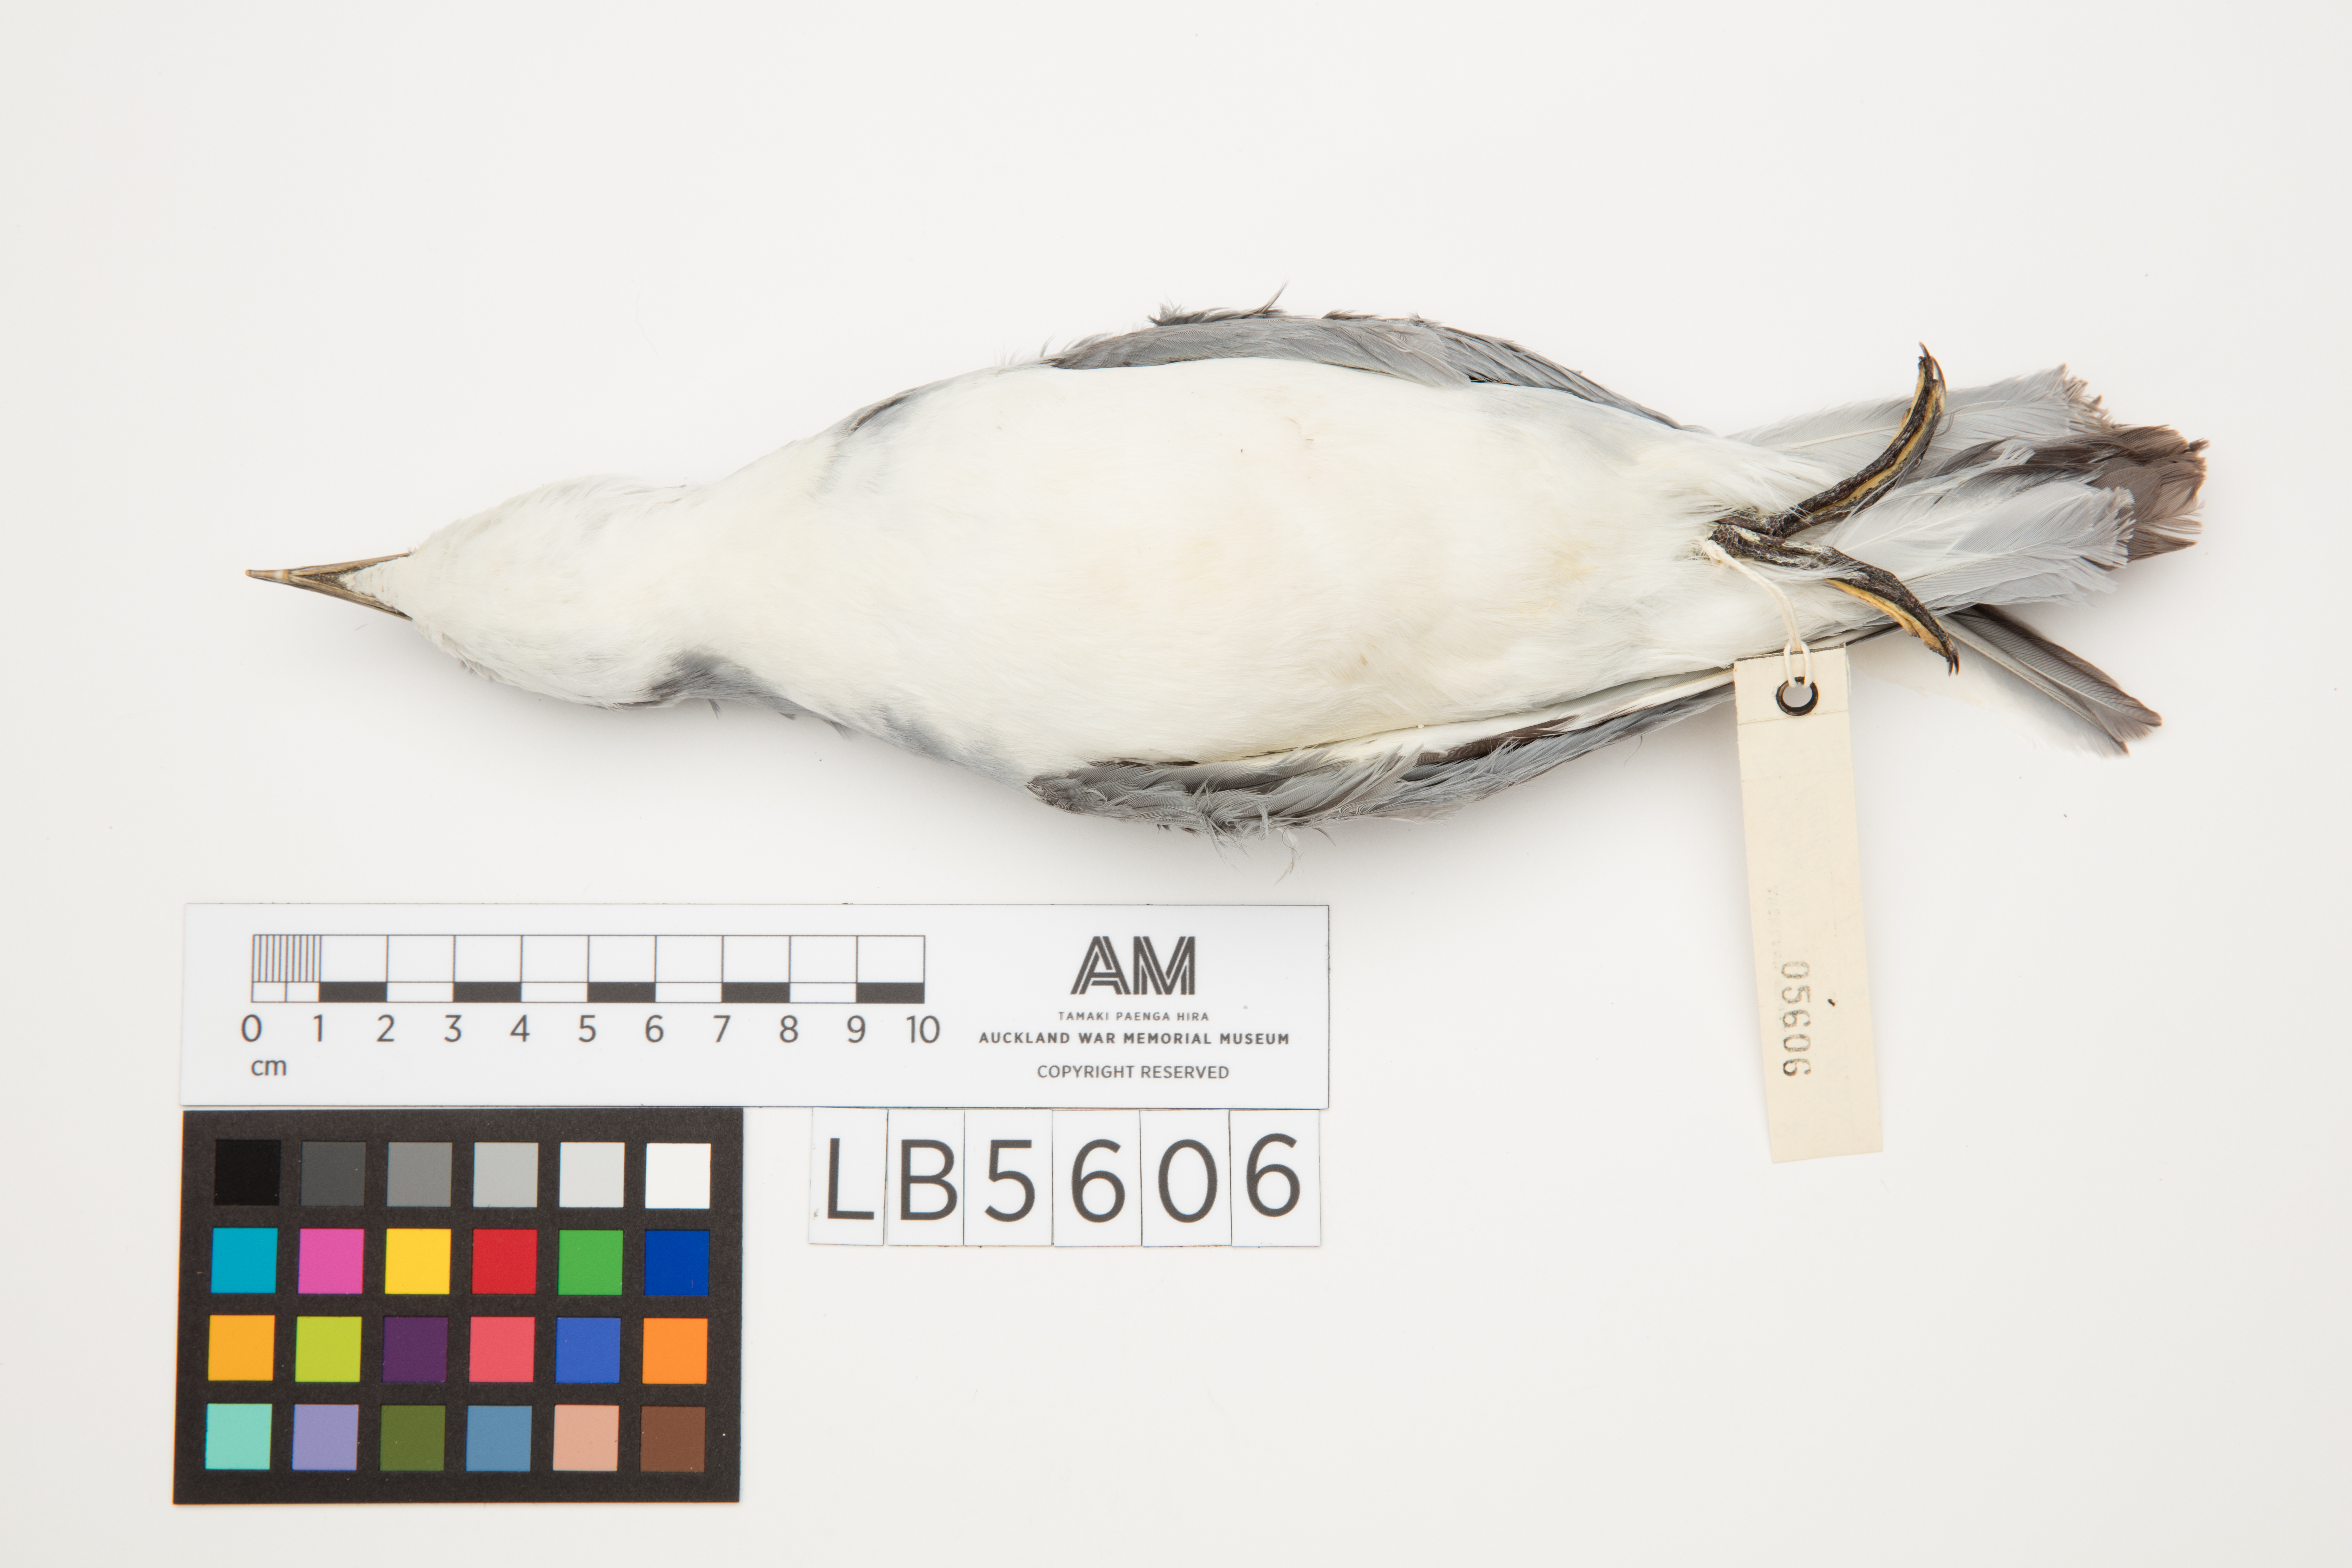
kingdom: Animalia
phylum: Chordata
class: Aves
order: Procellariiformes
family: Procellariidae
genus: Pachyptila
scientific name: Pachyptila belcheri
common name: Slender-billed prion
